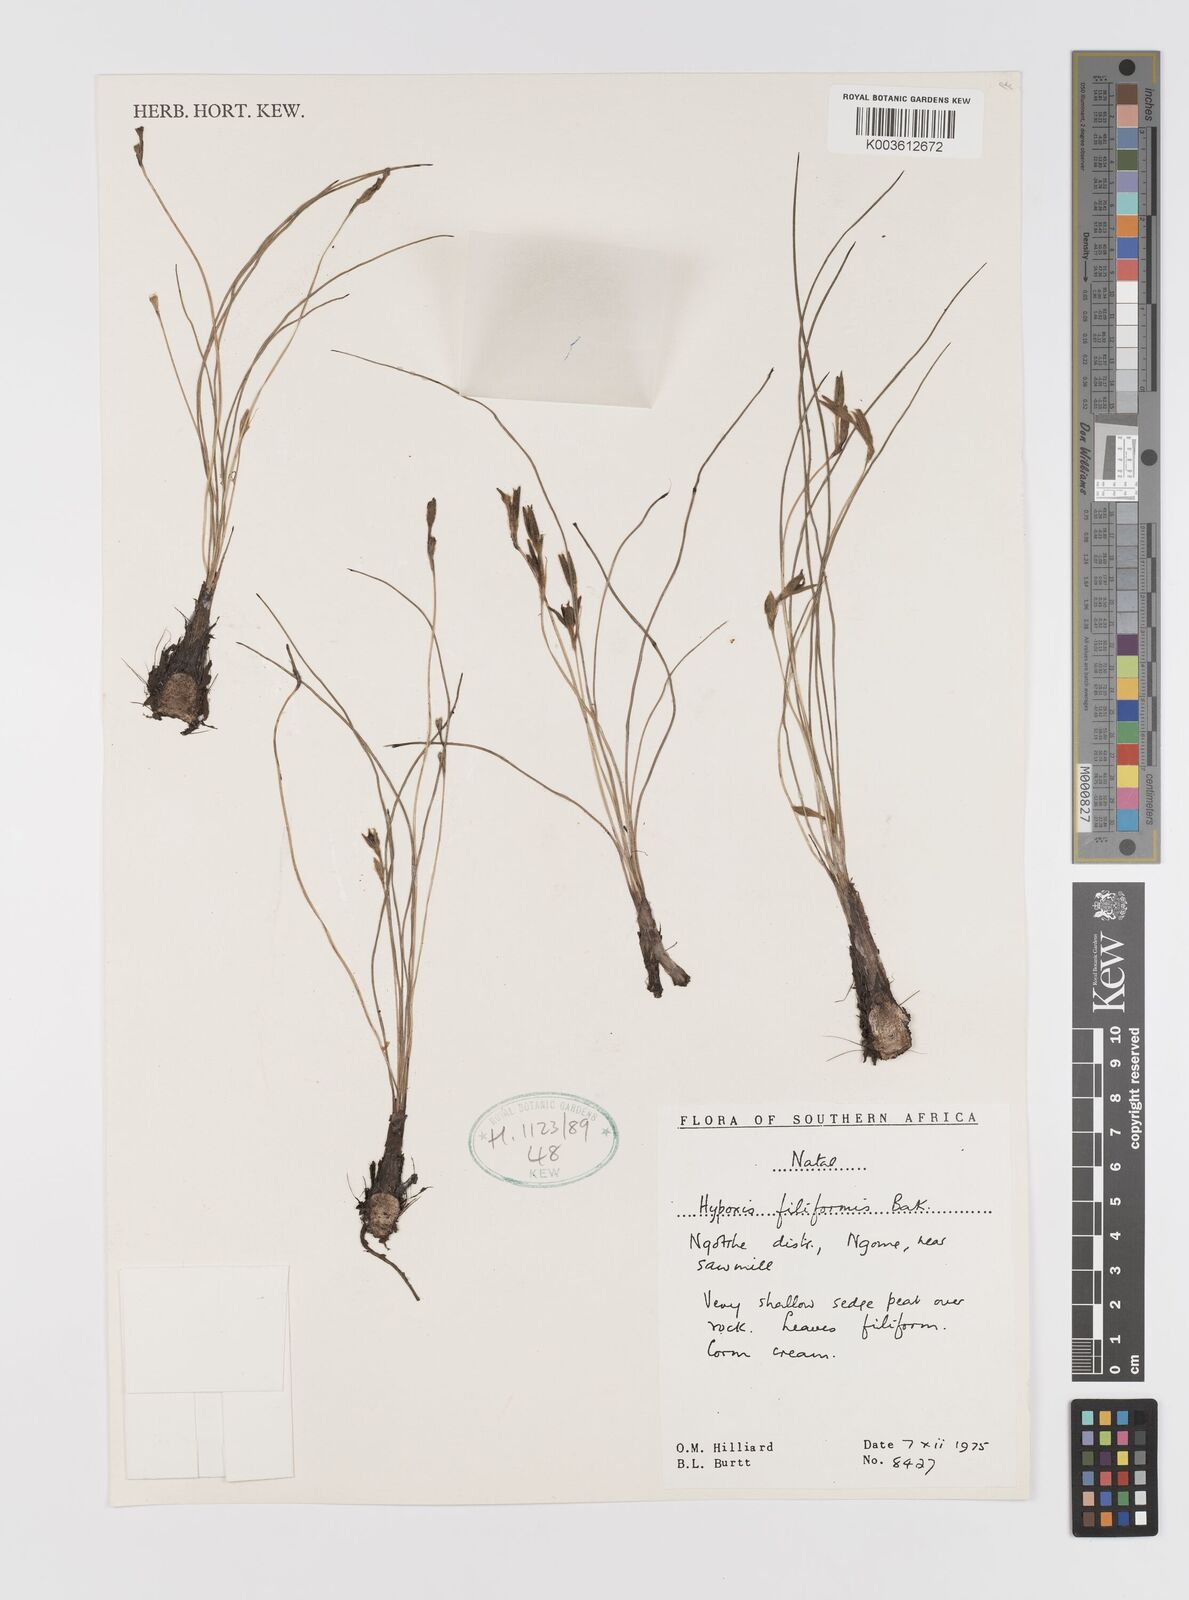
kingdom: Plantae
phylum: Tracheophyta
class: Liliopsida
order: Asparagales
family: Hypoxidaceae
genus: Hypoxis
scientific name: Hypoxis filiformis
